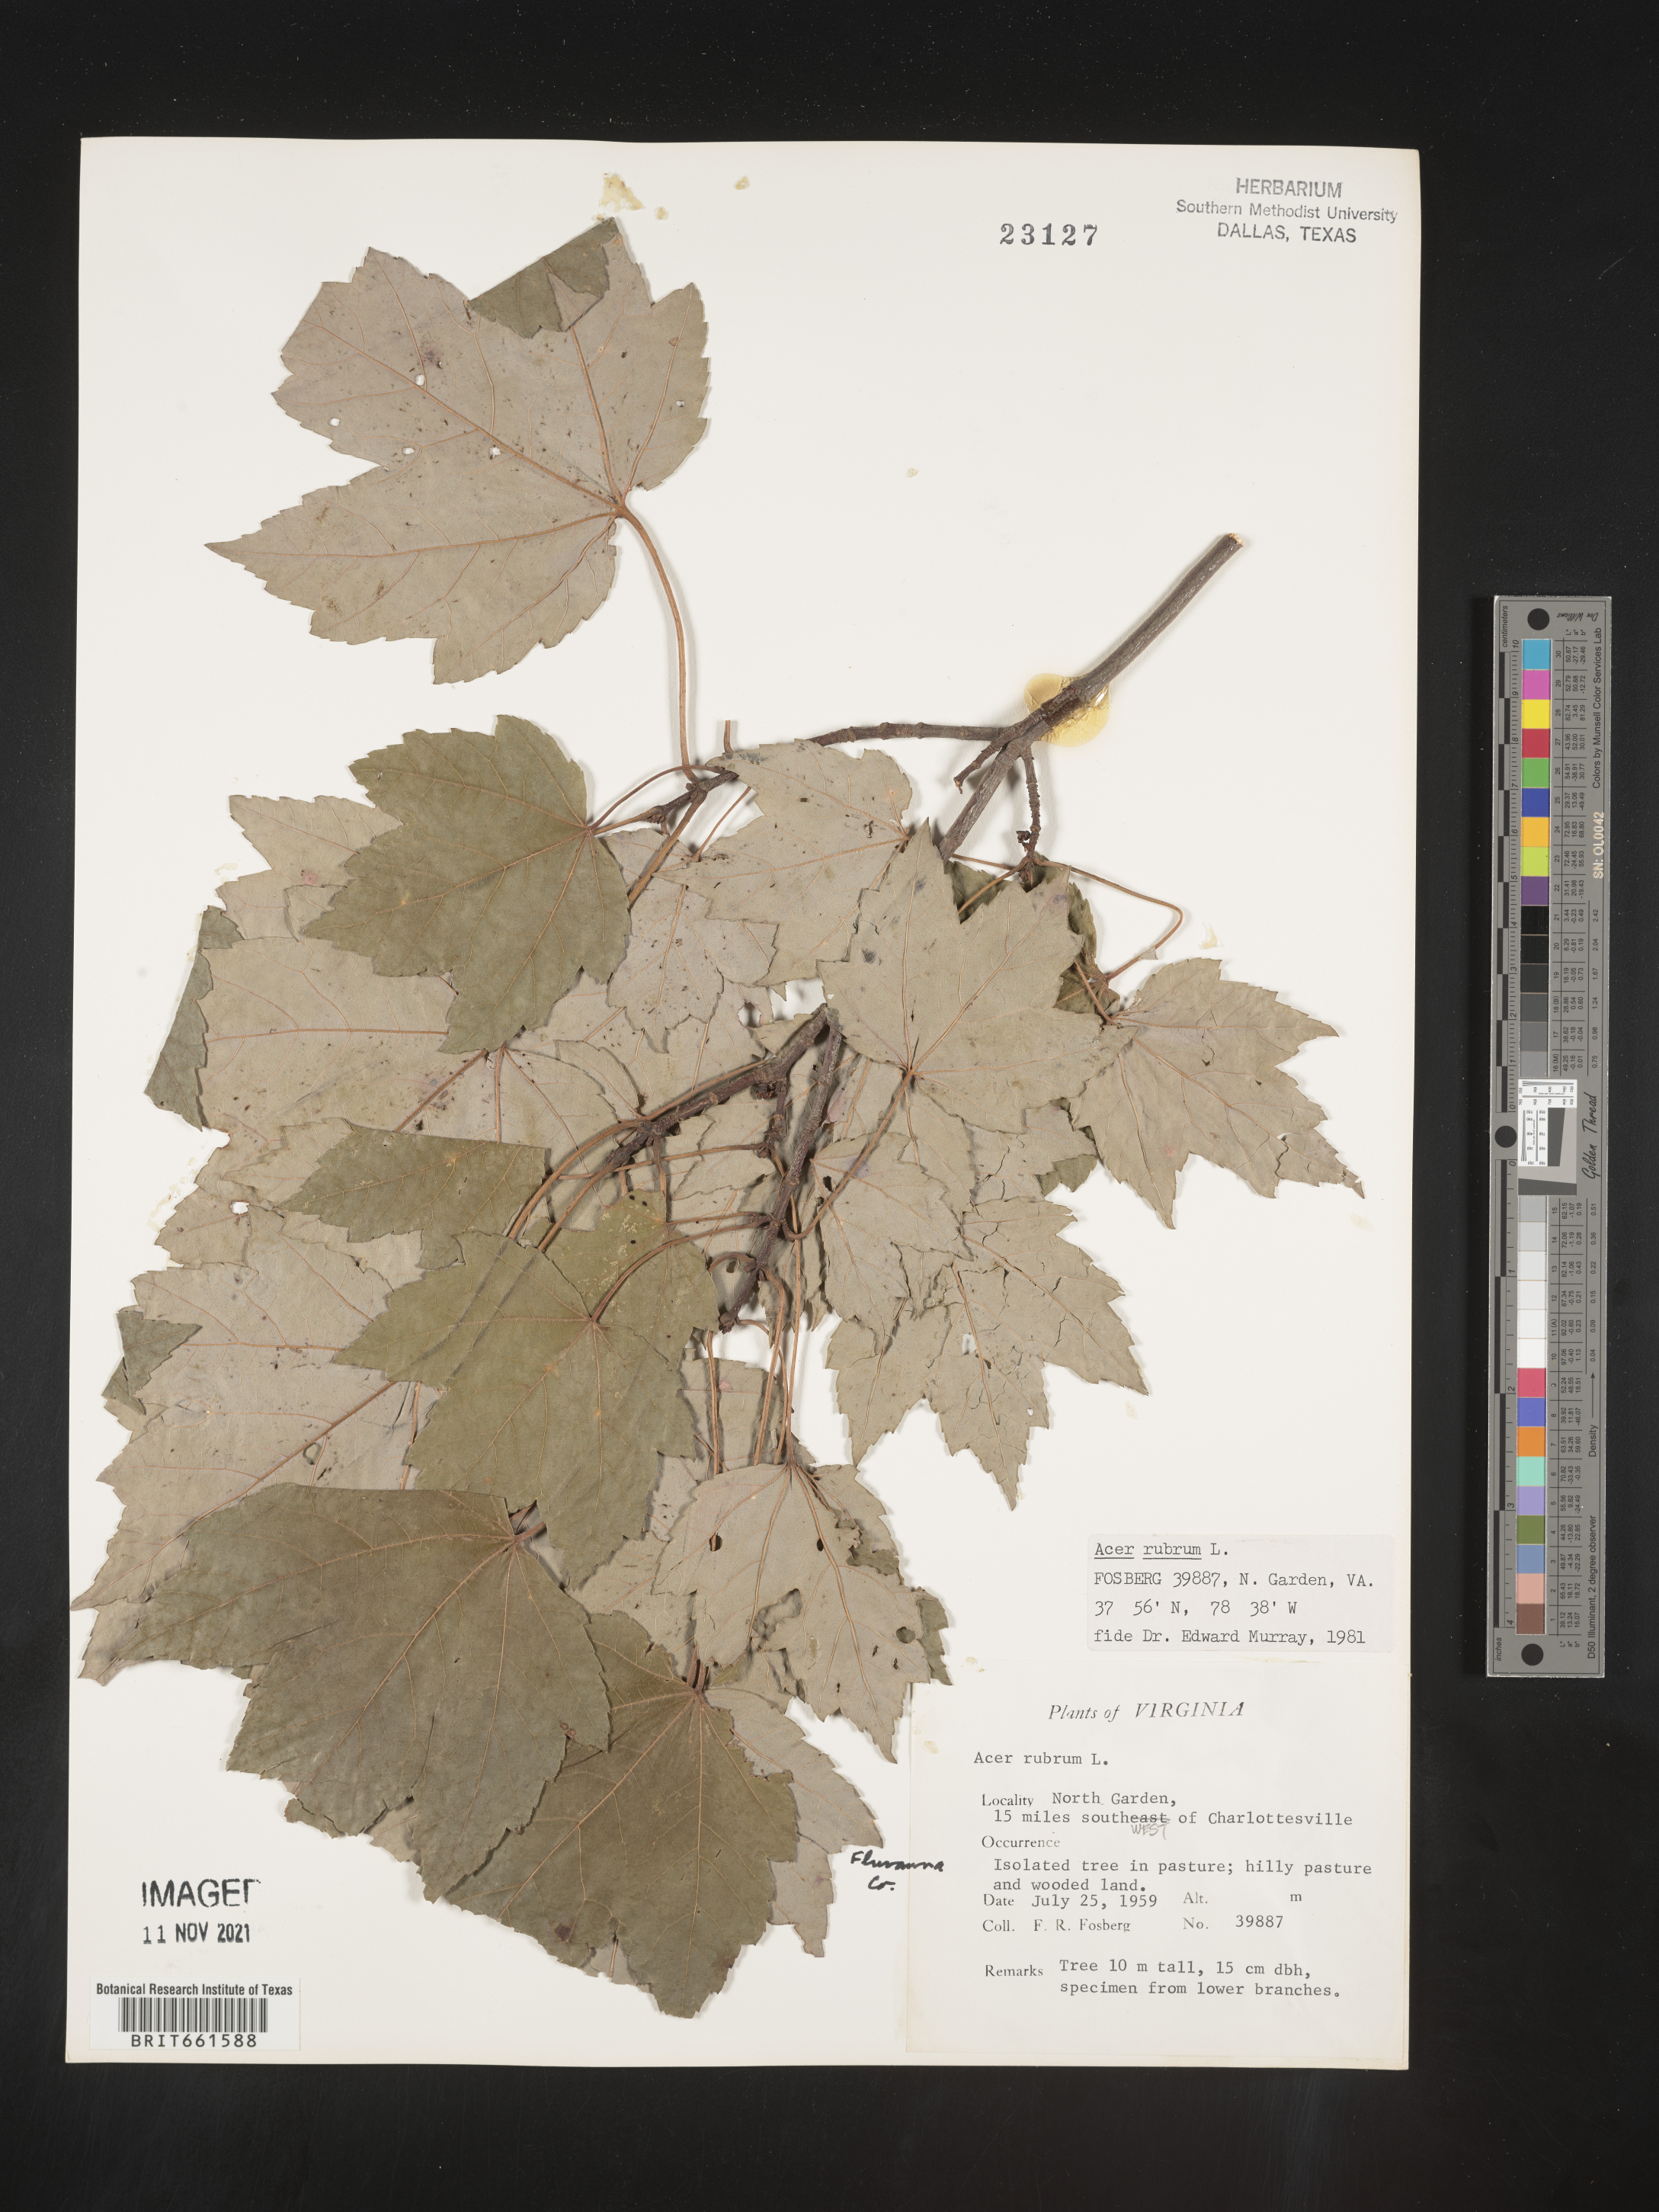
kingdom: Plantae
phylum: Tracheophyta
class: Magnoliopsida
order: Sapindales
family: Sapindaceae
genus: Acer
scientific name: Acer rubrum
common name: Red maple
